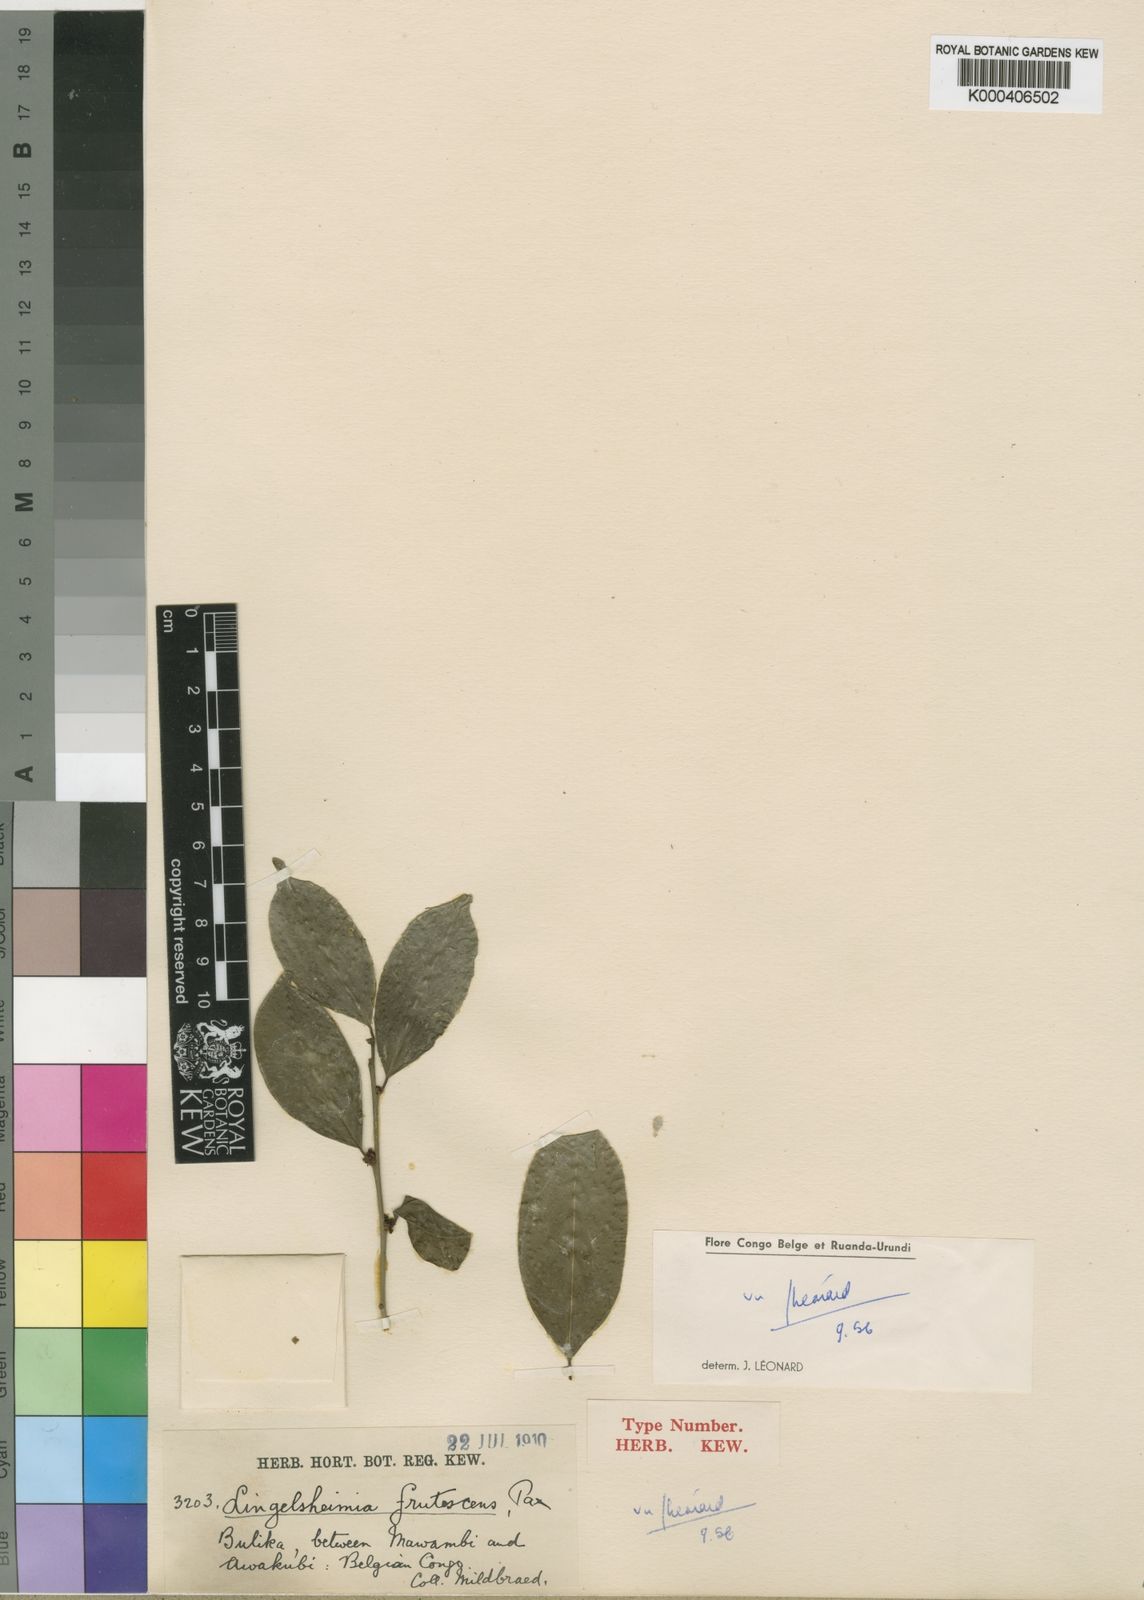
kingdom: Plantae
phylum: Tracheophyta
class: Magnoliopsida
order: Malpighiales
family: Phyllanthaceae
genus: Lingelsheimia
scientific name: Lingelsheimia frutescens
